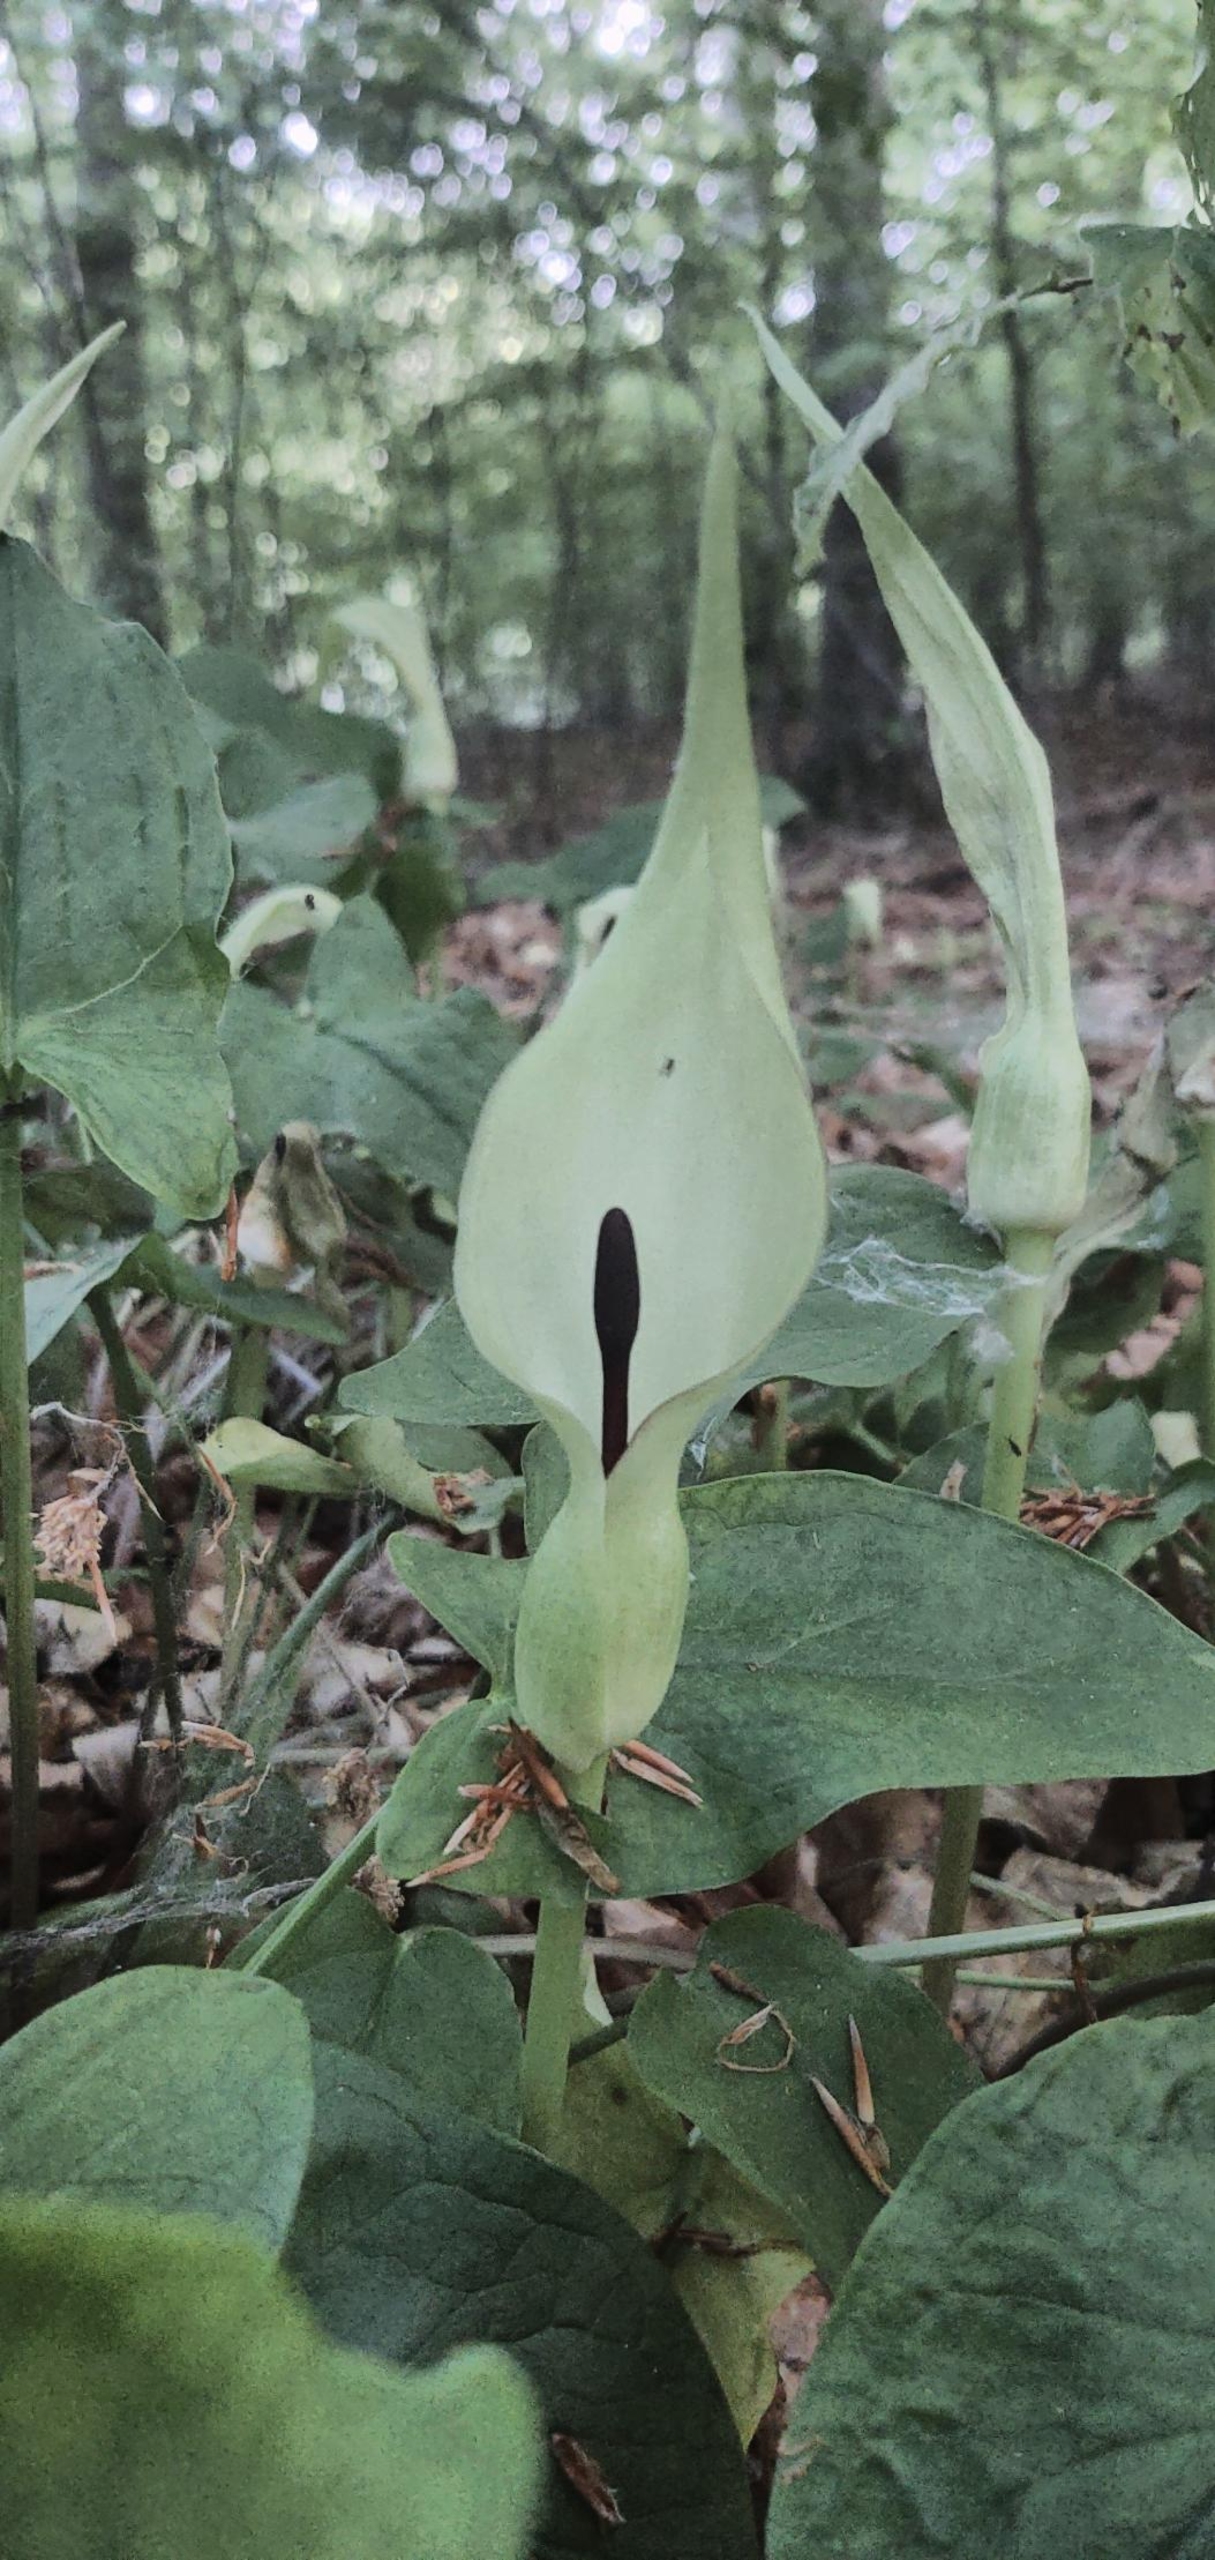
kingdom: Plantae
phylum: Tracheophyta
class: Liliopsida
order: Alismatales
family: Araceae
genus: Arum
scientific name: Arum maculatum
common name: Plettet arum
